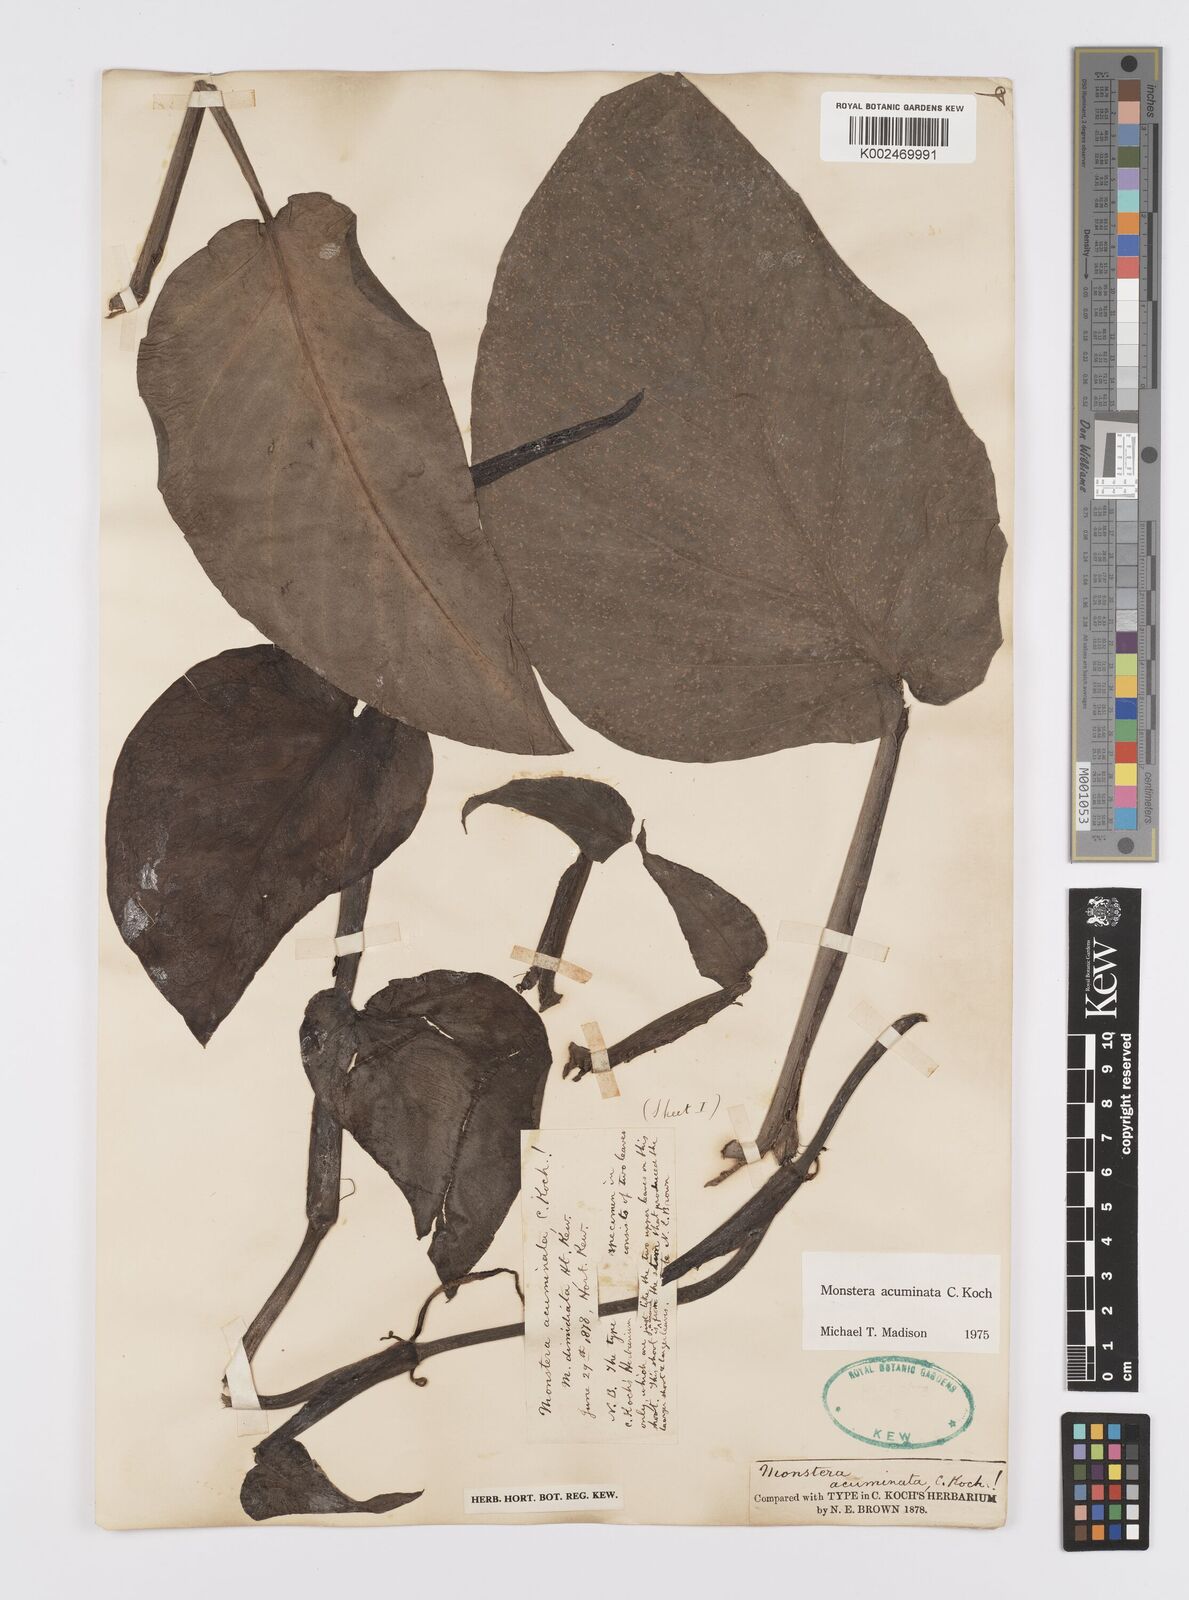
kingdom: Plantae
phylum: Tracheophyta
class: Liliopsida
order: Alismatales
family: Araceae
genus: Monstera
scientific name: Monstera acuminata
